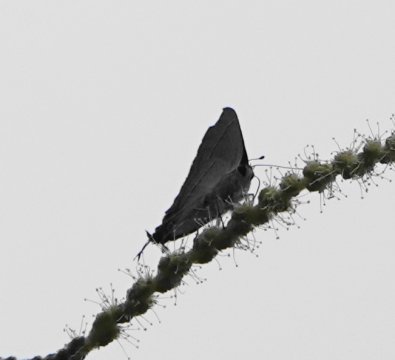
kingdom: Animalia
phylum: Arthropoda
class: Insecta
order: Lepidoptera
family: Lycaenidae
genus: Strymon
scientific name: Strymon melinus
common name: Gray Hairstreak
